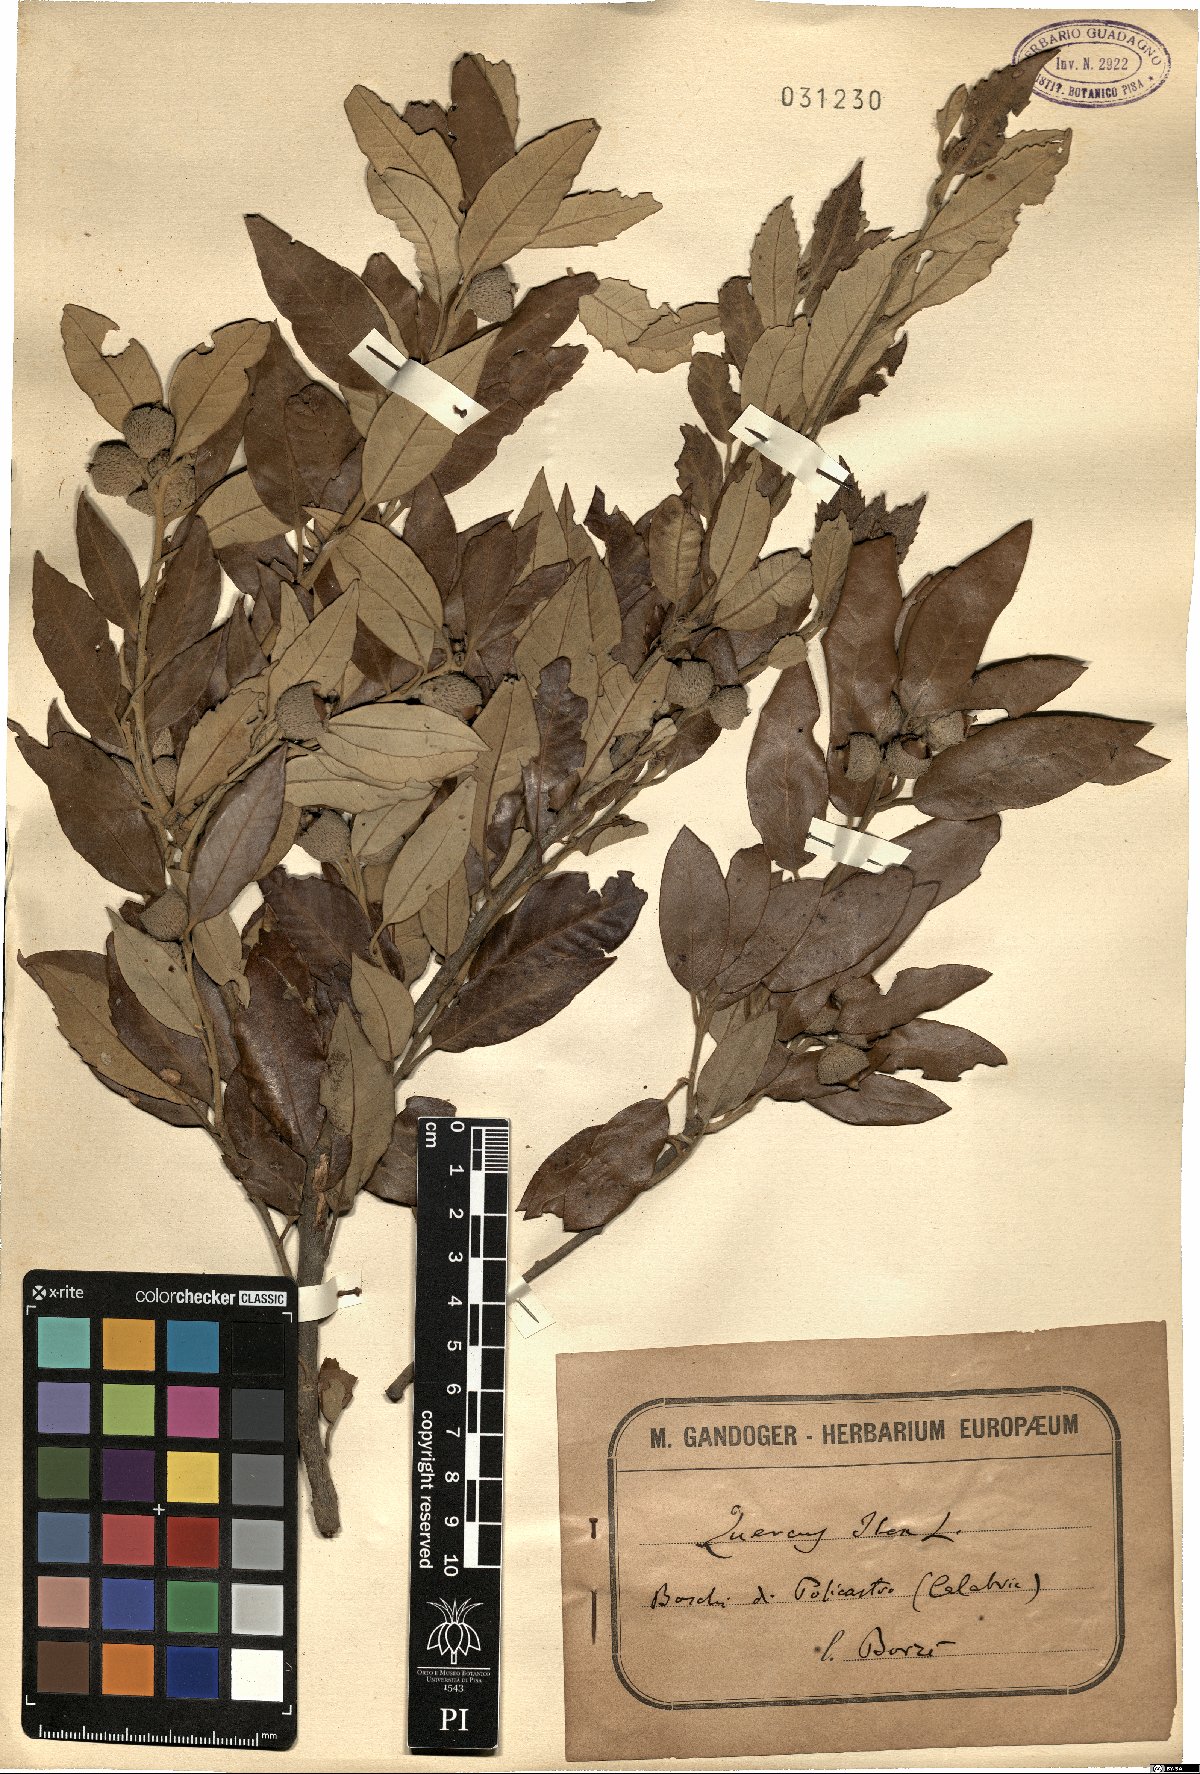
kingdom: Plantae
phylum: Tracheophyta
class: Magnoliopsida
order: Fagales
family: Fagaceae
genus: Quercus
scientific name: Quercus ilex
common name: Evergreen oak
